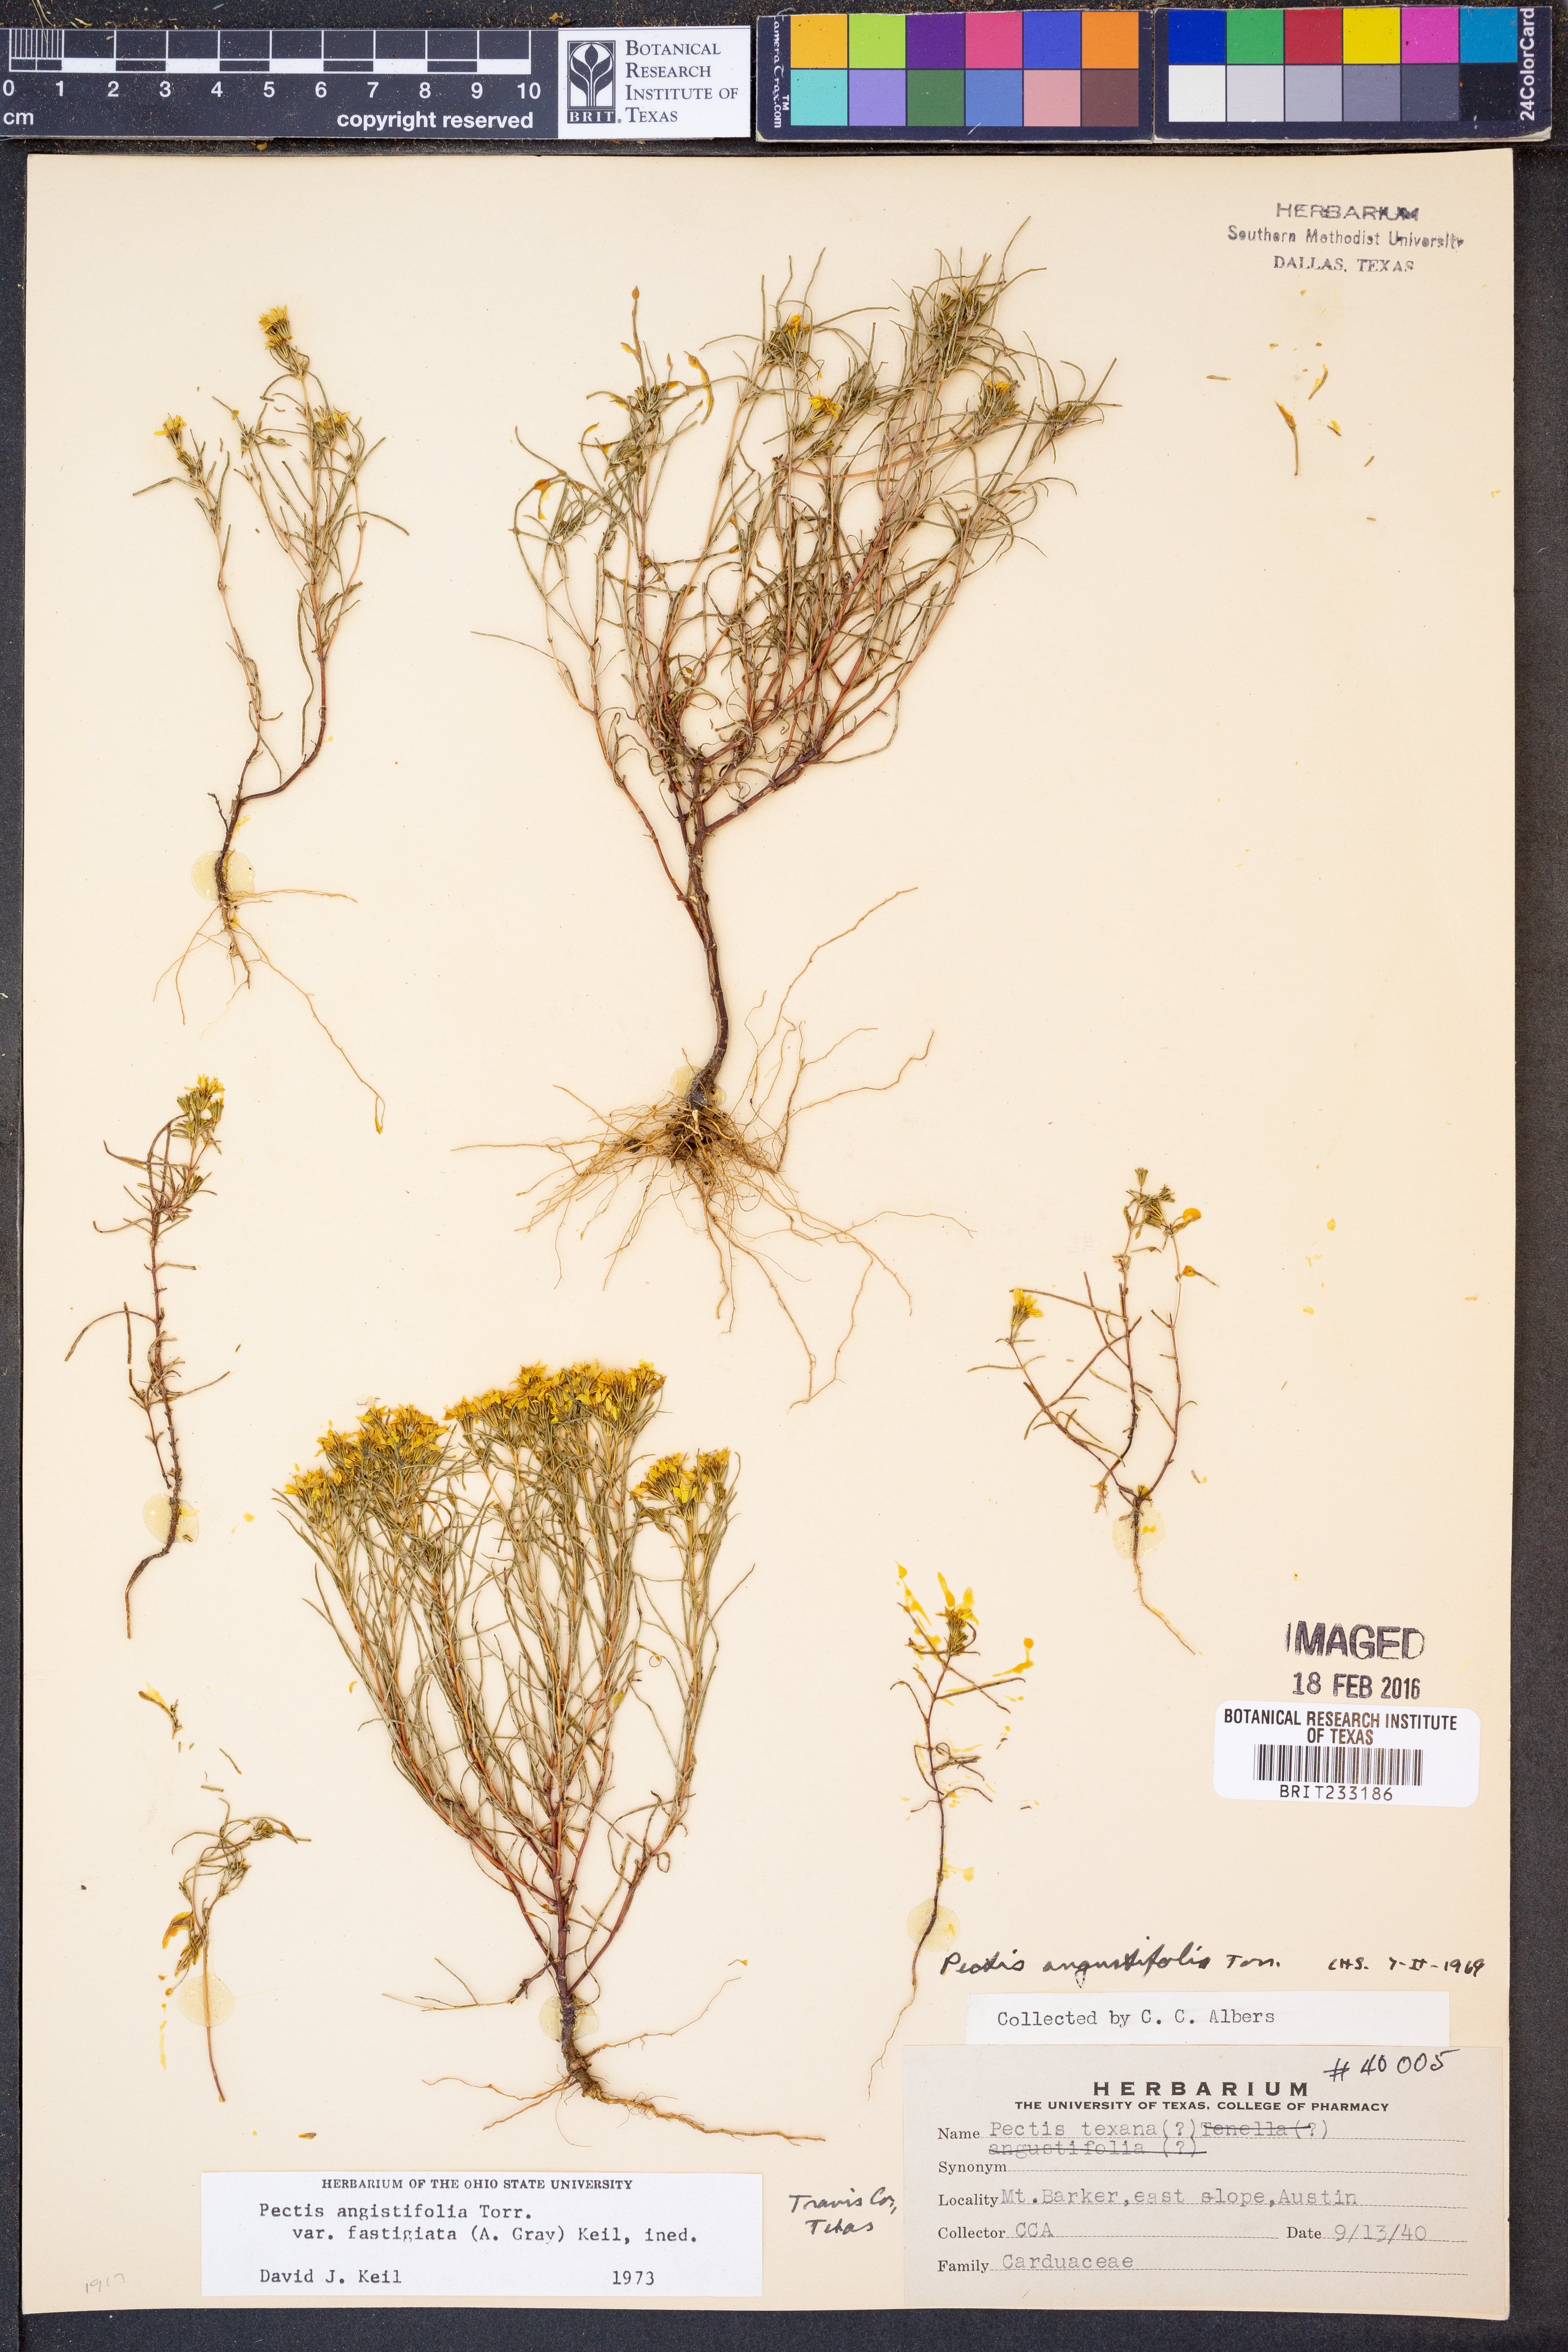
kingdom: Plantae
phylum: Tracheophyta
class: Magnoliopsida
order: Asterales
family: Asteraceae
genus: Pectis
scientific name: Pectis angustifolia
